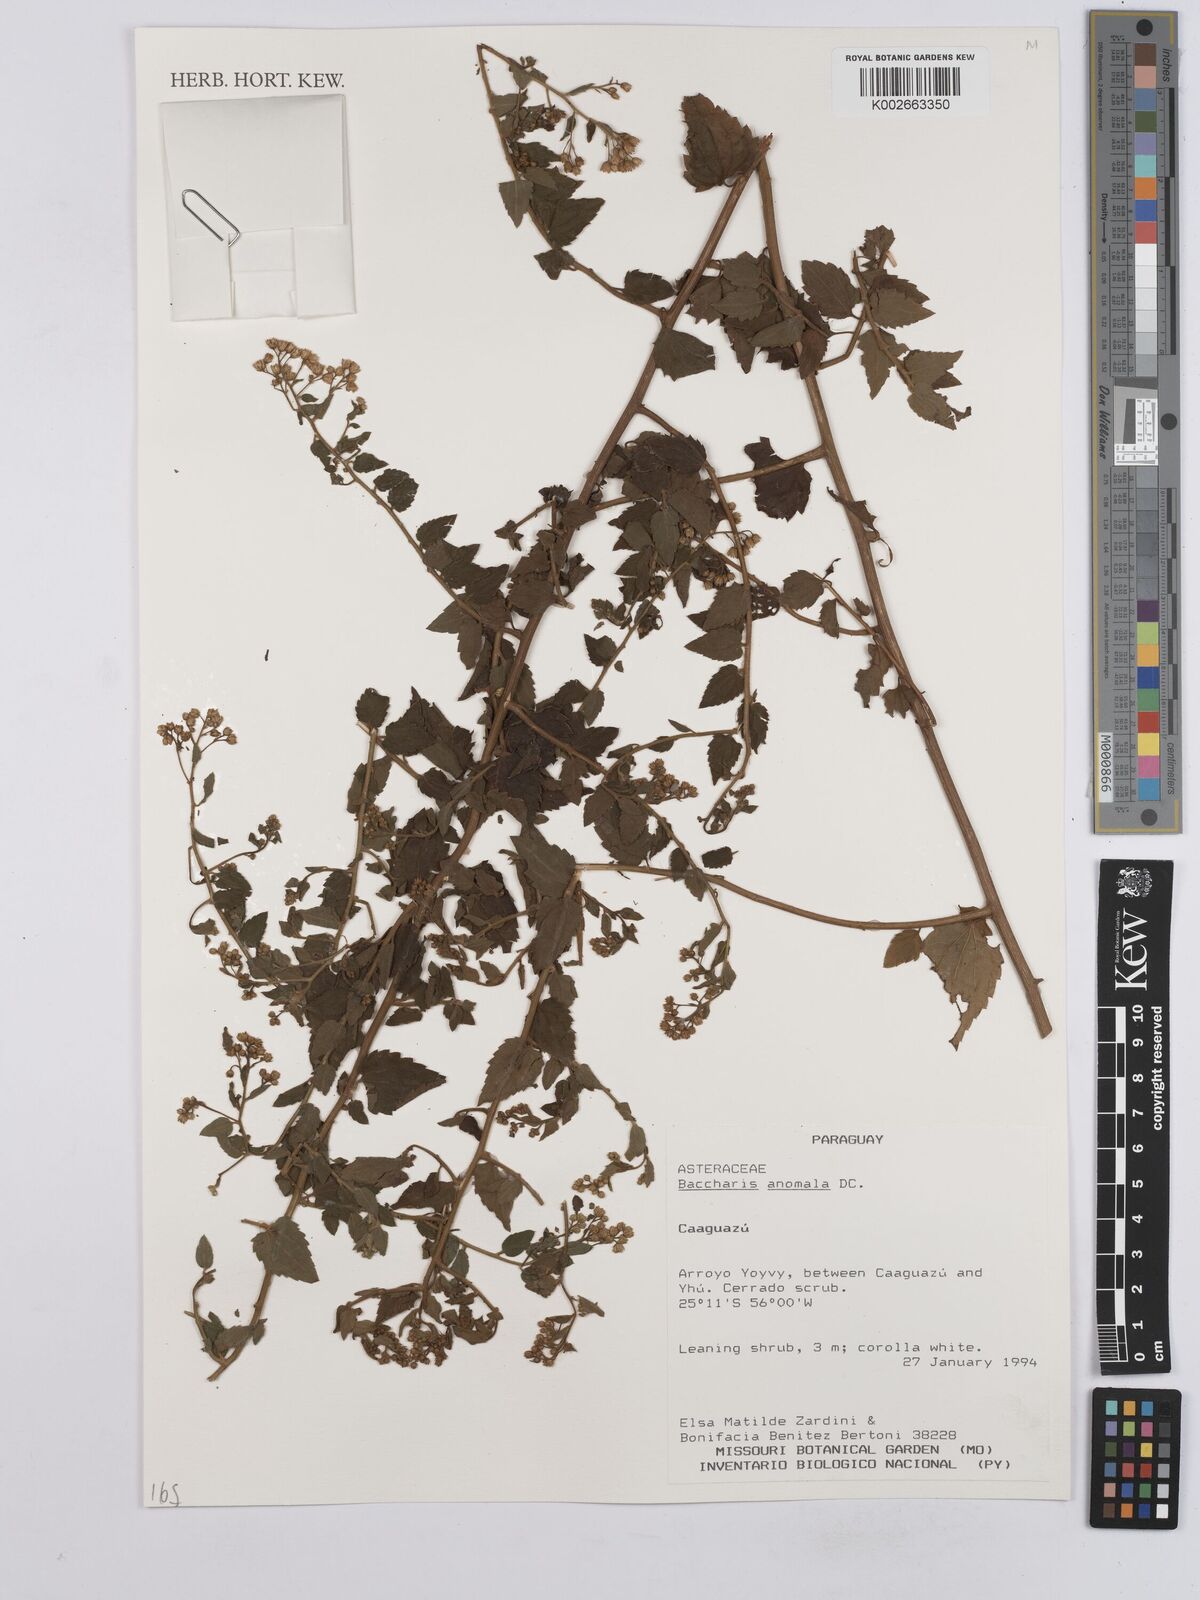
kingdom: Plantae
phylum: Tracheophyta
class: Magnoliopsida
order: Asterales
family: Asteraceae
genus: Baccharis
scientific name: Baccharis anomala
